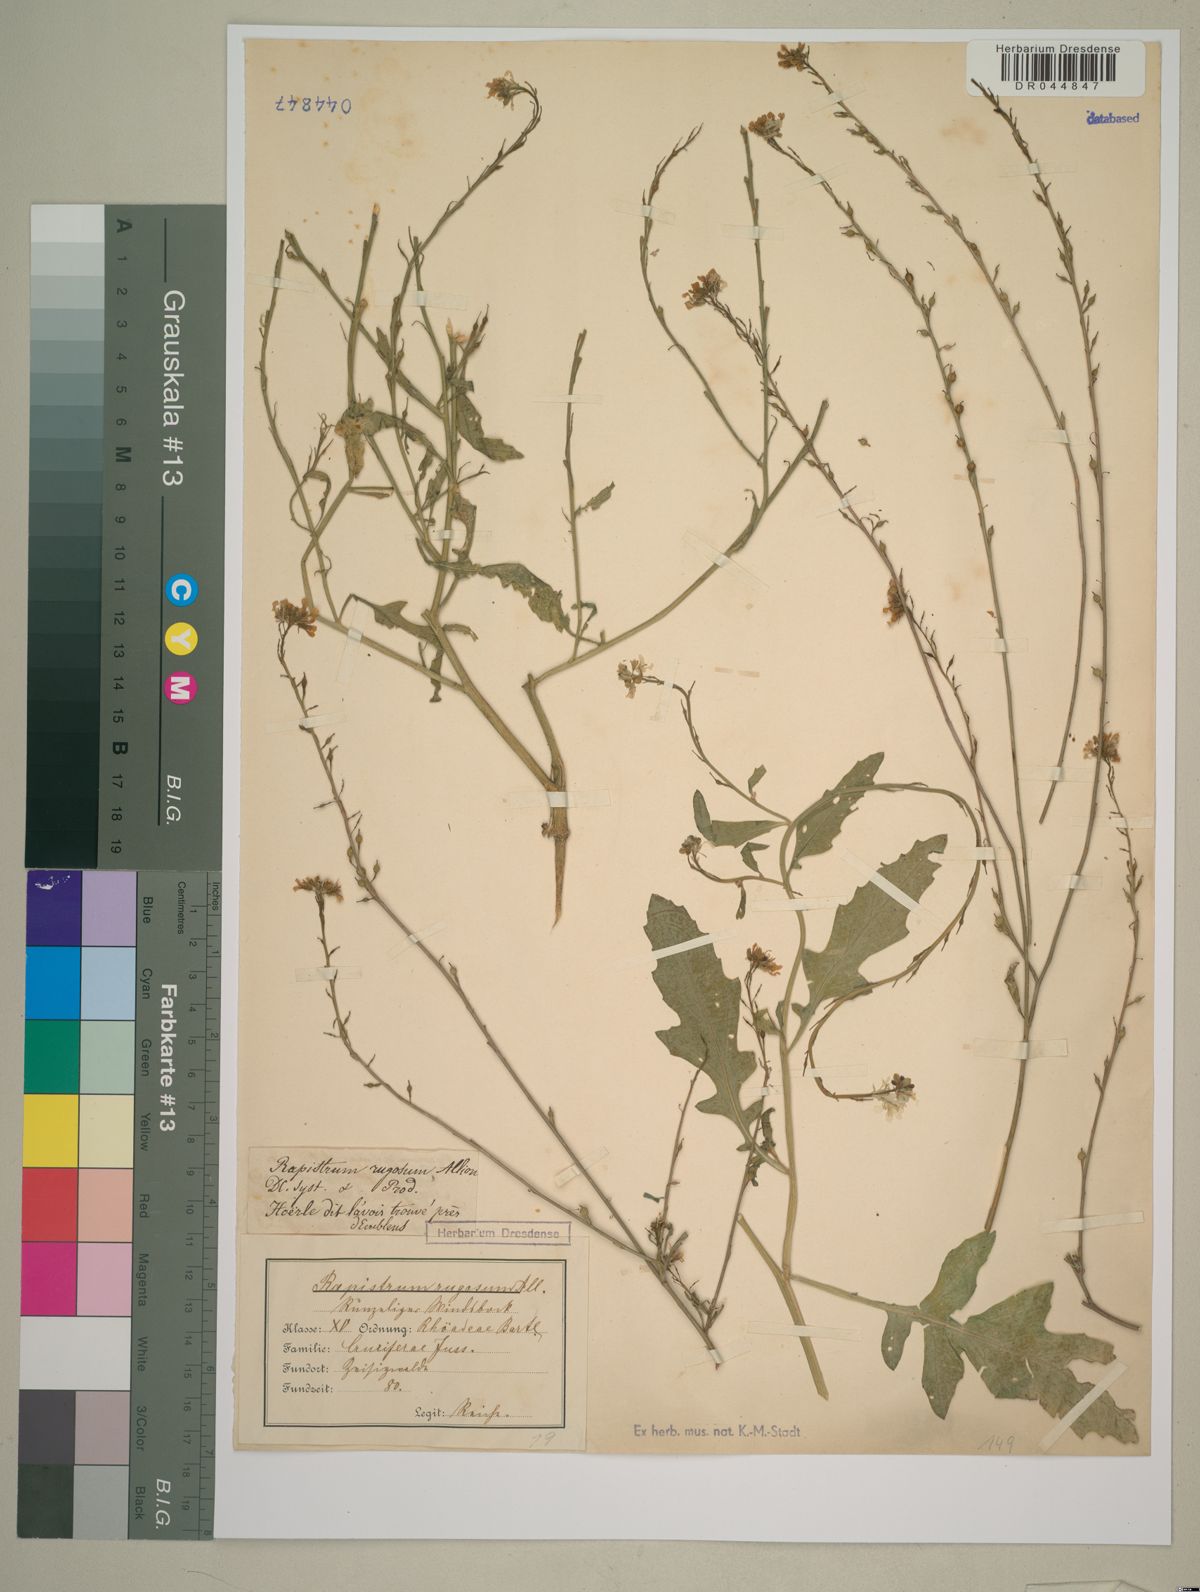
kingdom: Plantae
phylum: Tracheophyta
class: Magnoliopsida
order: Brassicales
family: Brassicaceae
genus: Rapistrum
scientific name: Rapistrum rugosum
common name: Annual bastardcabbage
